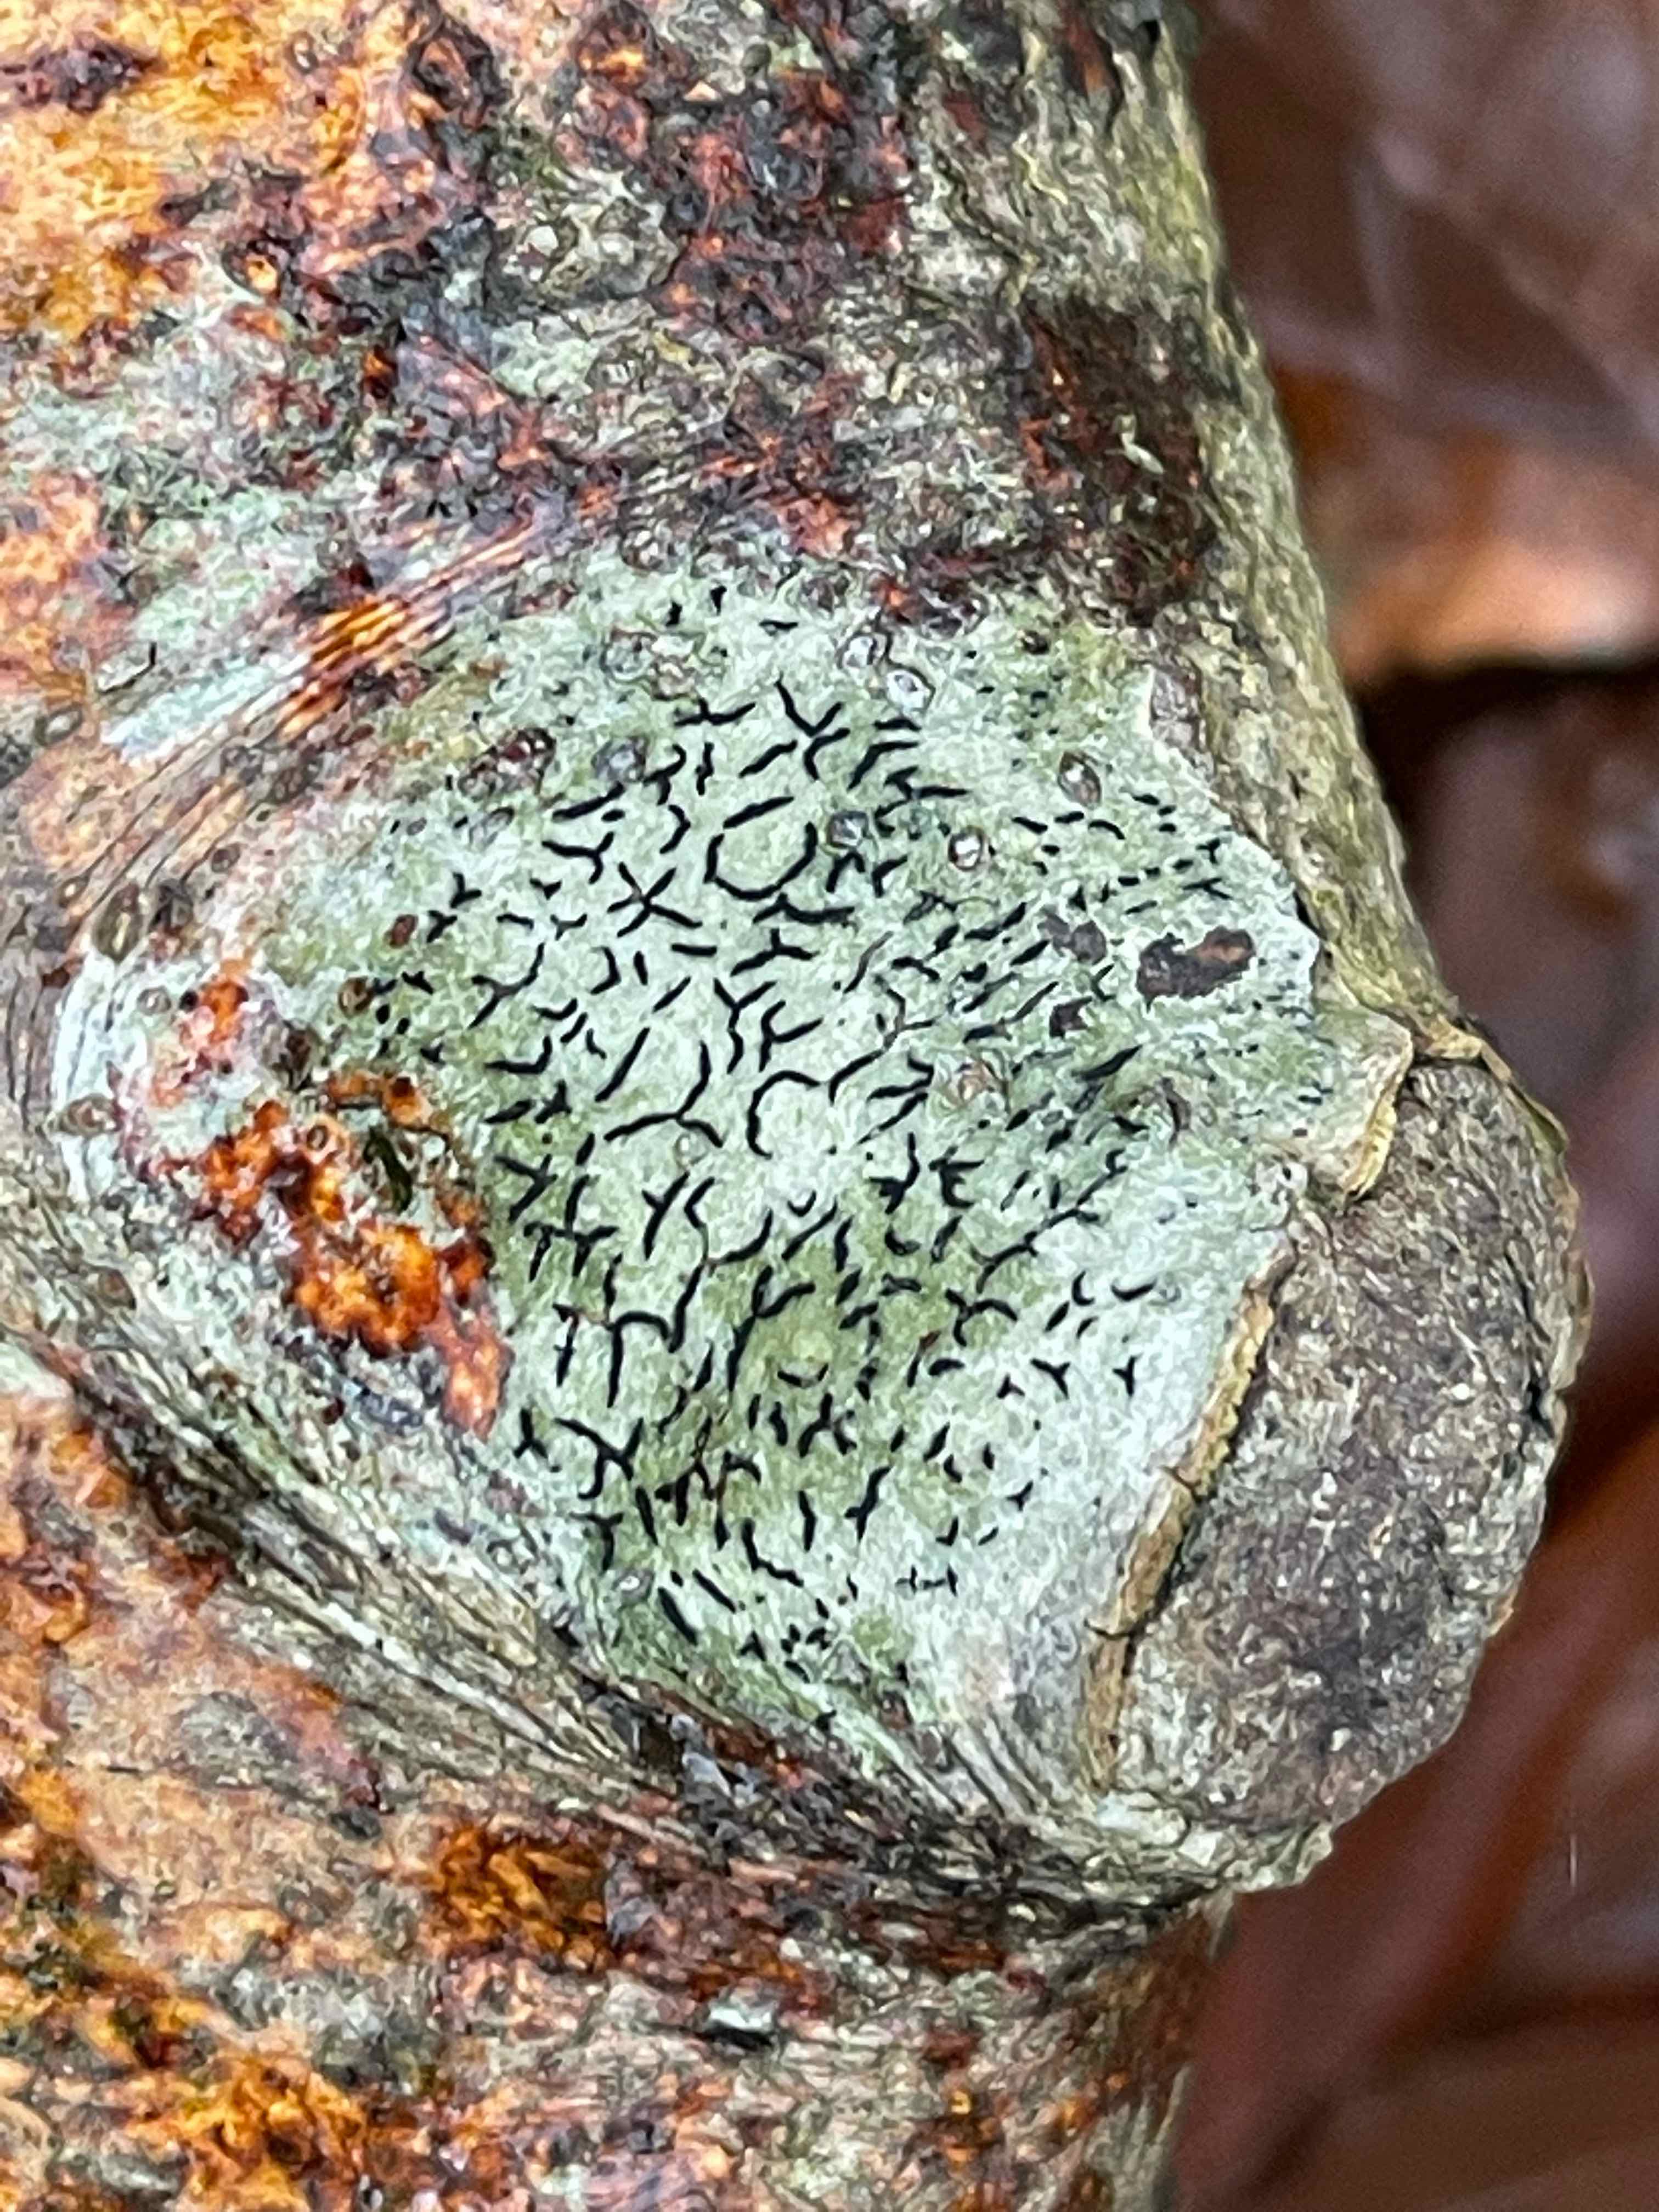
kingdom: Fungi
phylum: Ascomycota
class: Lecanoromycetes
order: Ostropales
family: Graphidaceae
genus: Graphis
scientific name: Graphis scripta
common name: almindelig skriftlav
